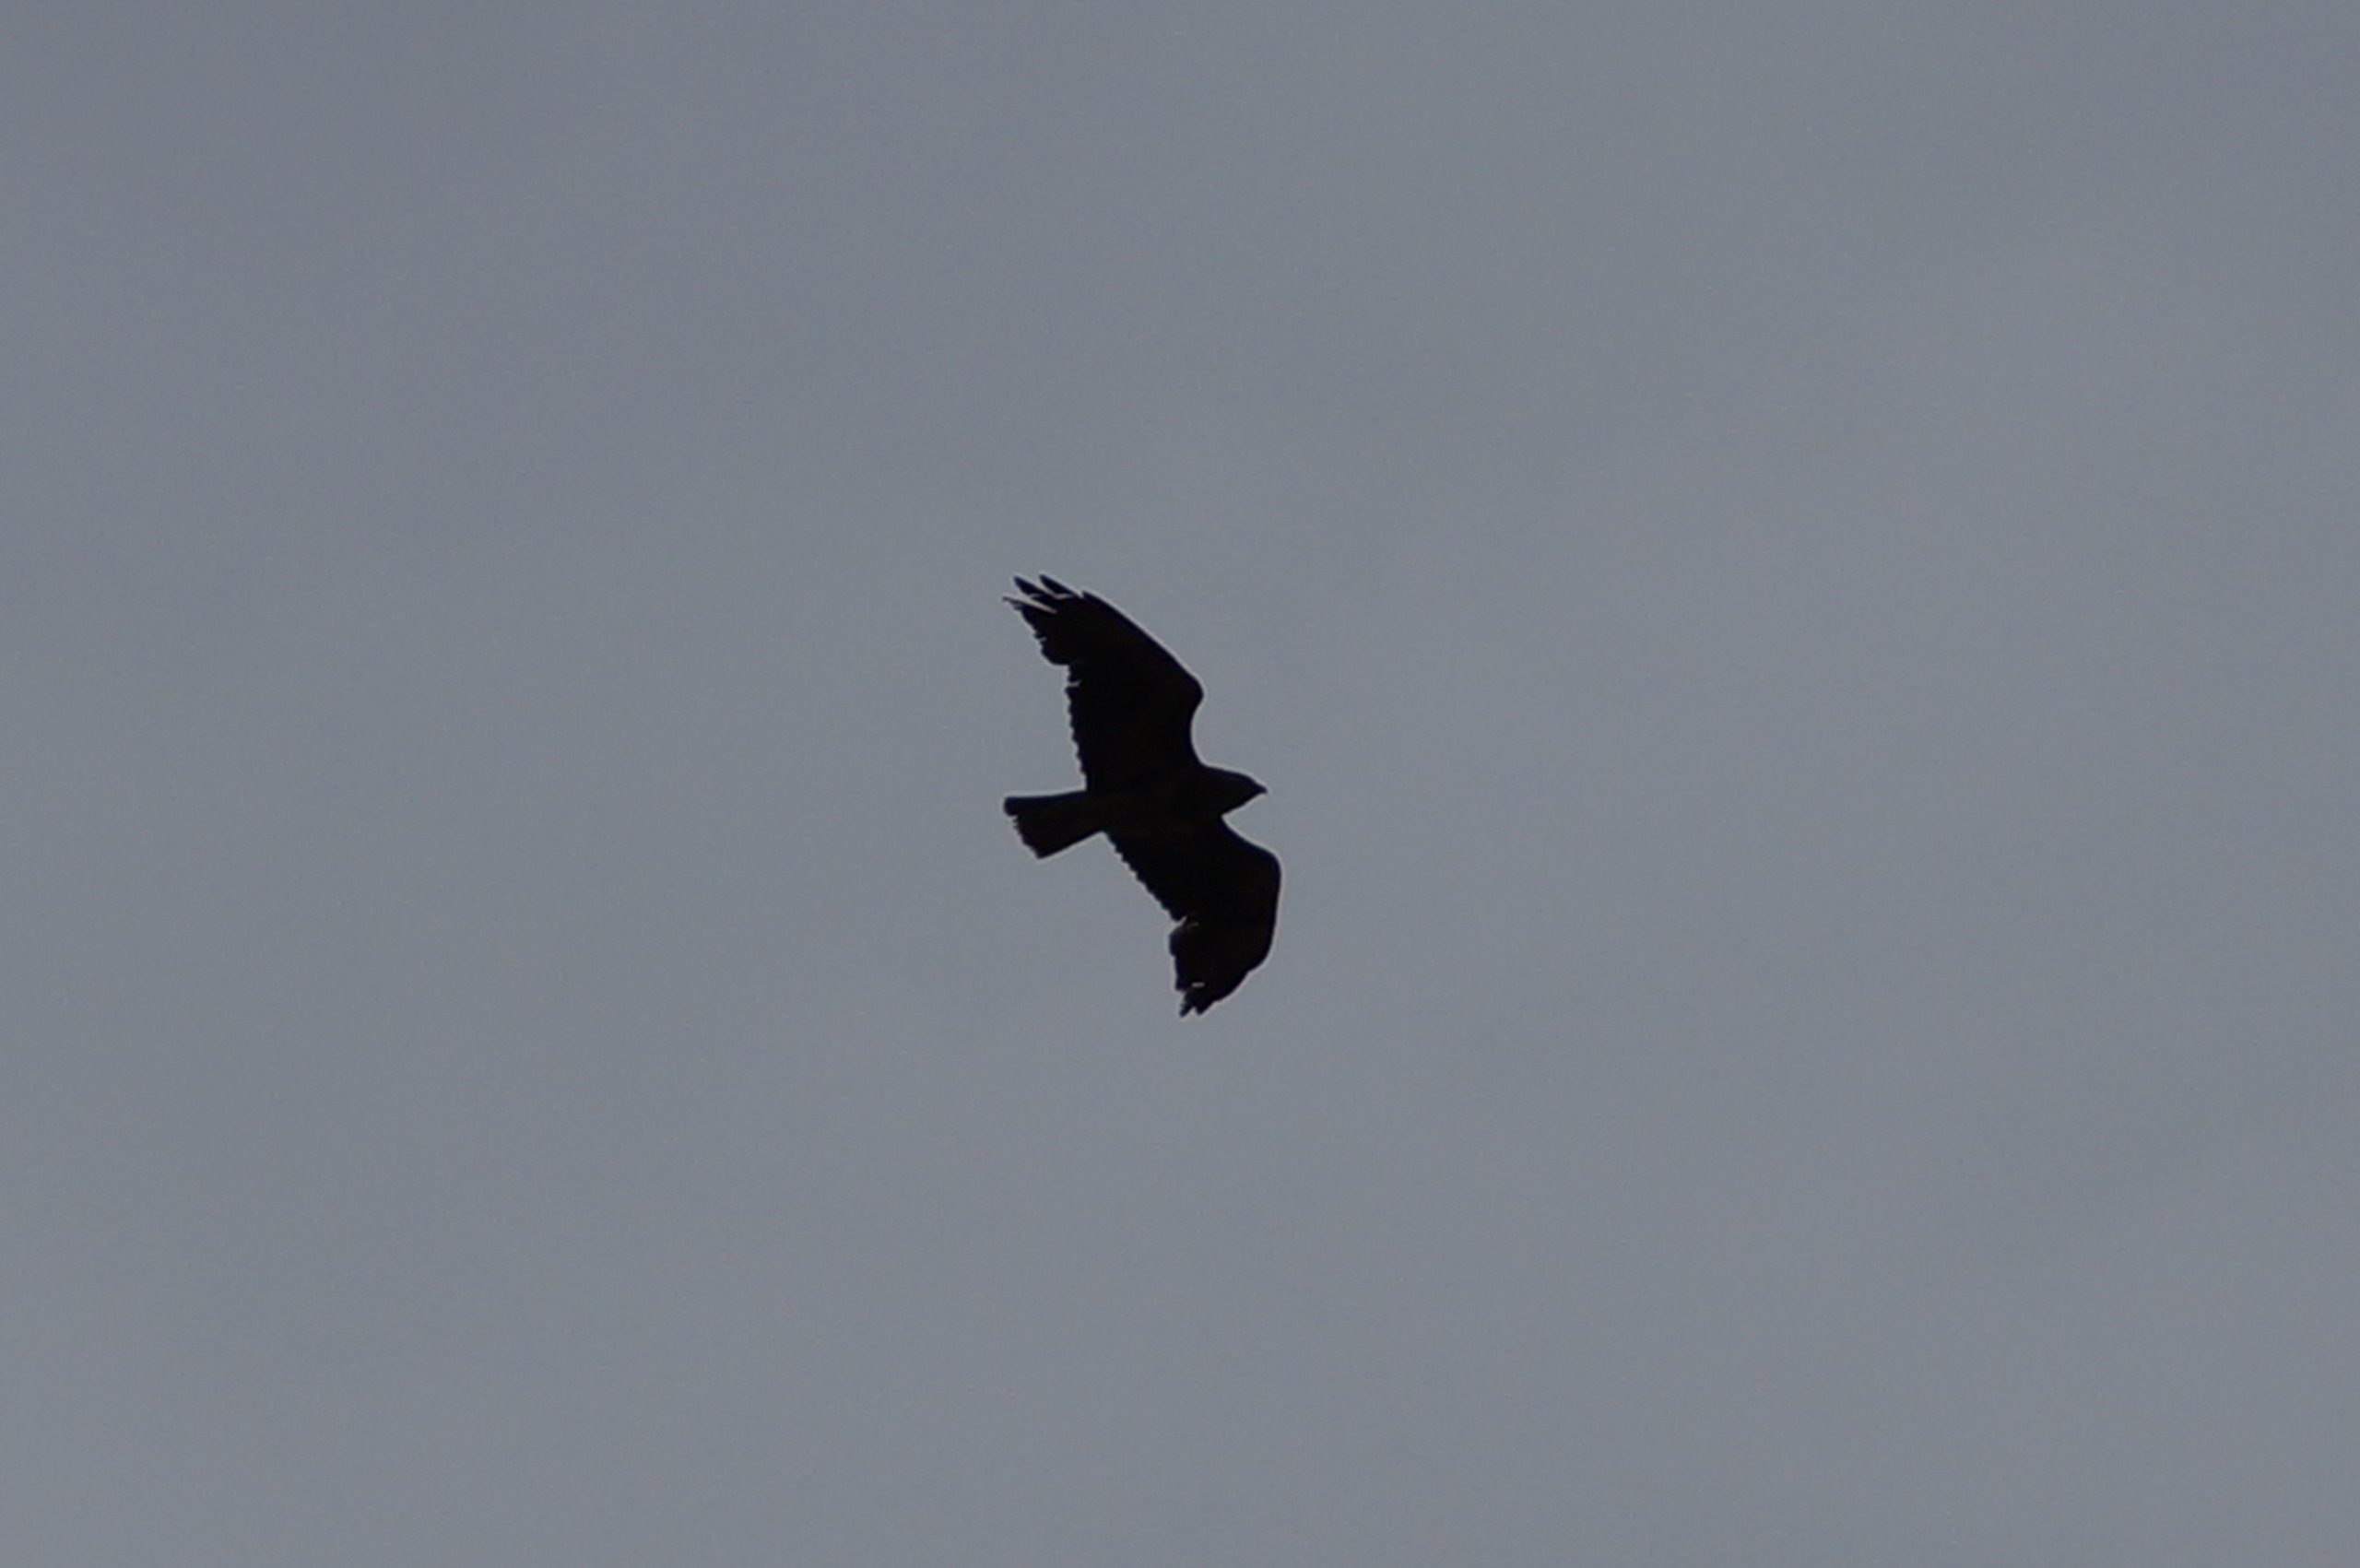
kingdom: Animalia
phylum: Chordata
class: Aves
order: Accipitriformes
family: Accipitridae
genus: Buteo
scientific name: Buteo buteo
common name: Musvåge
